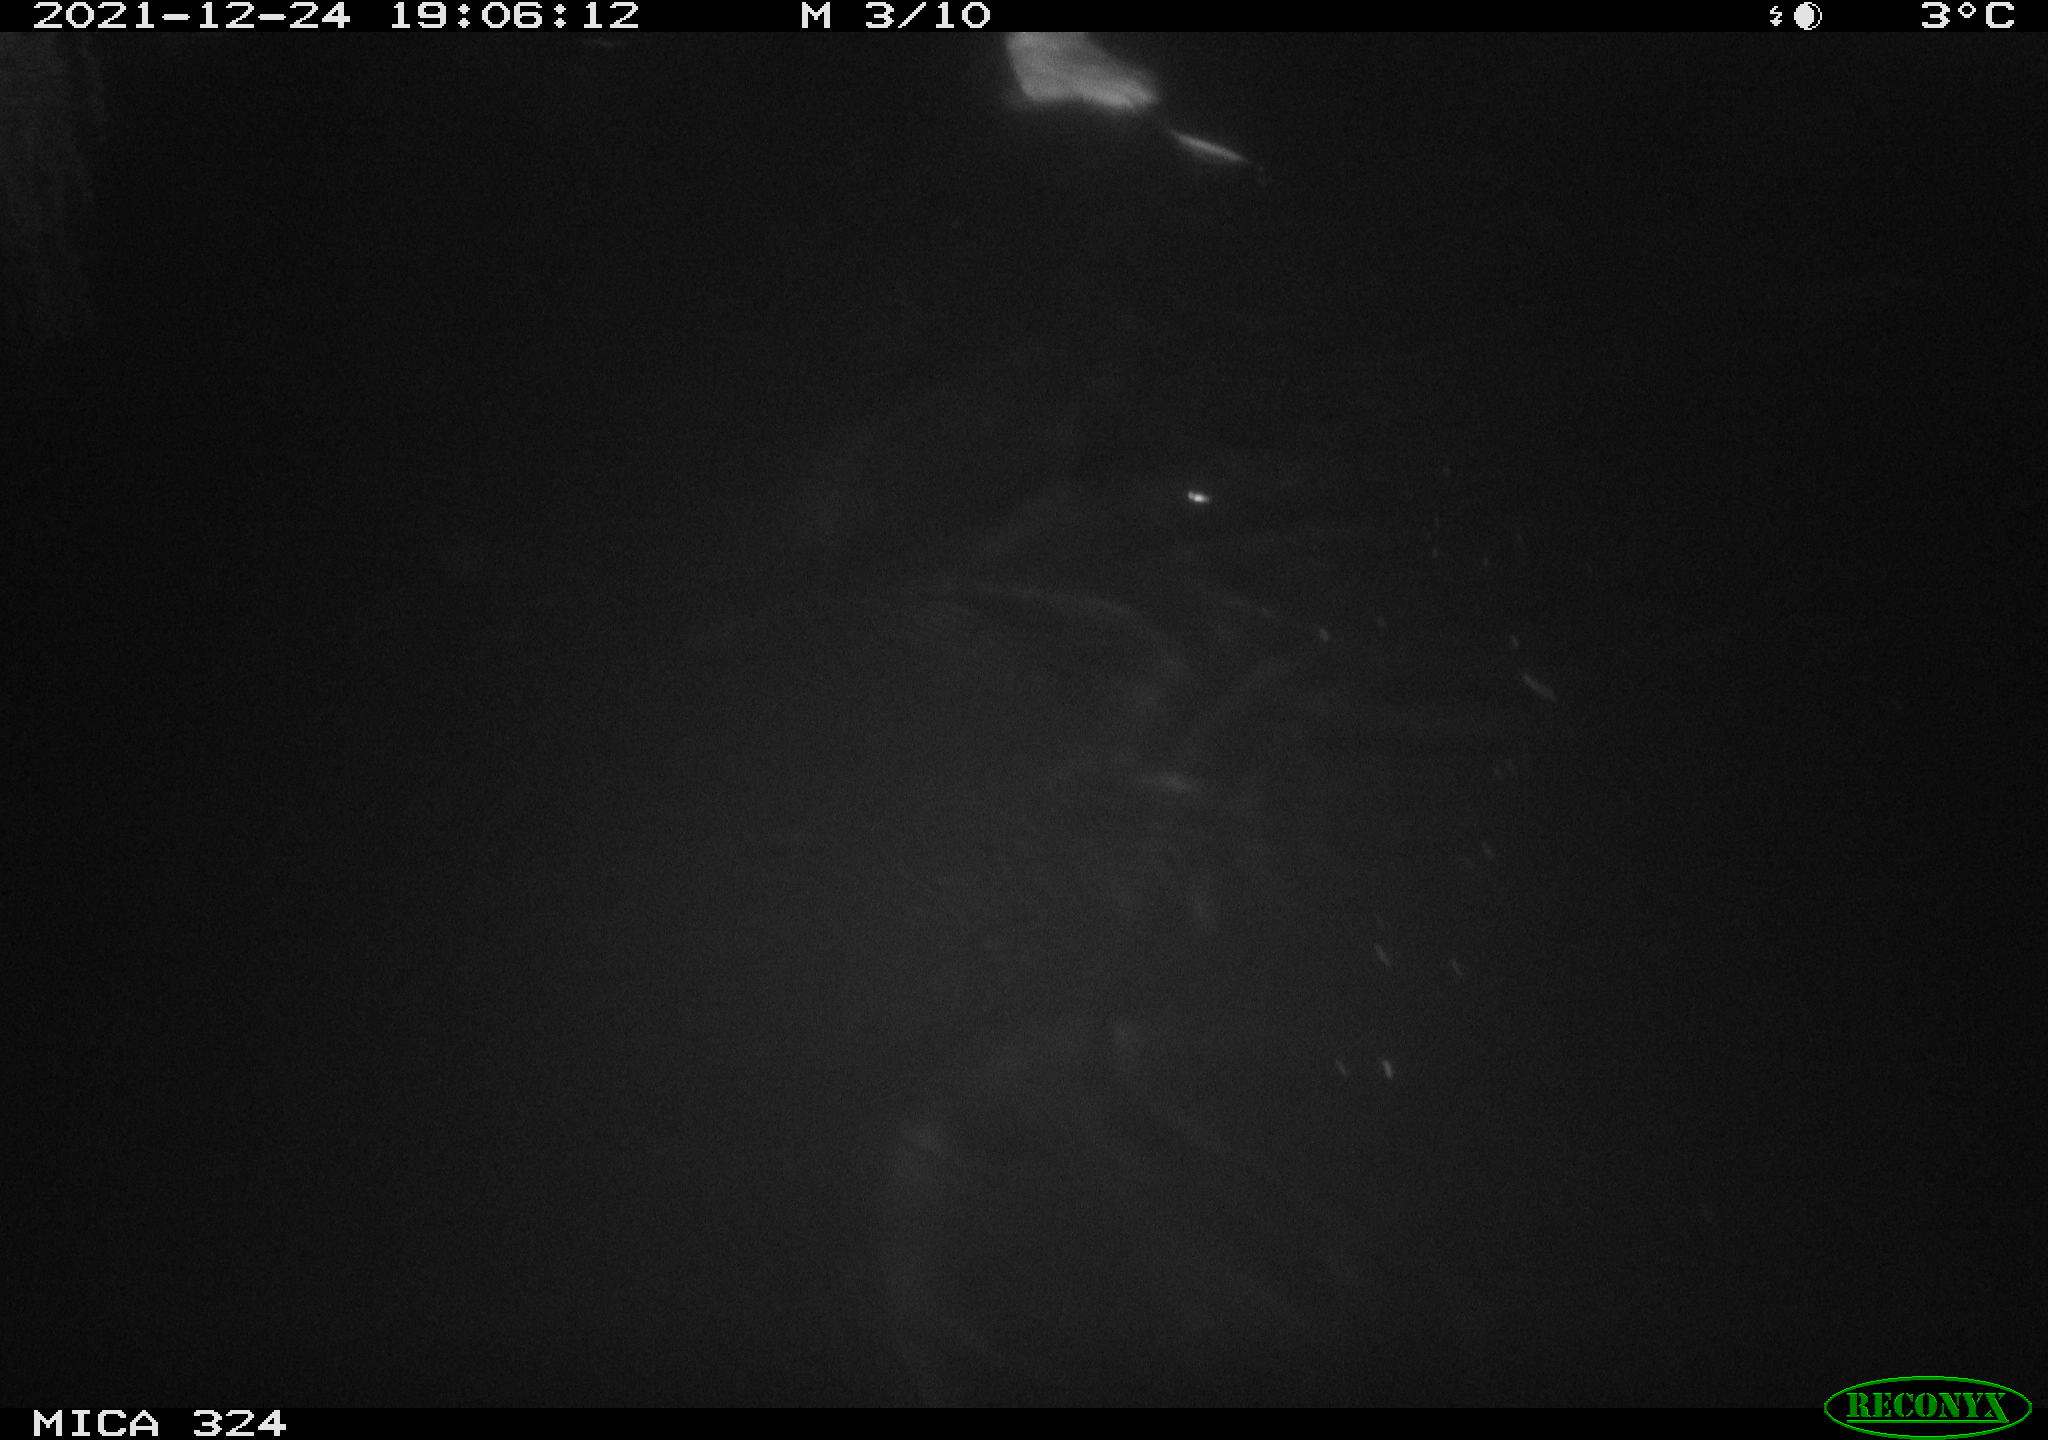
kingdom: Animalia
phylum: Chordata
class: Mammalia
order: Rodentia
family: Cricetidae
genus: Ondatra
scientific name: Ondatra zibethicus
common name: Muskrat
